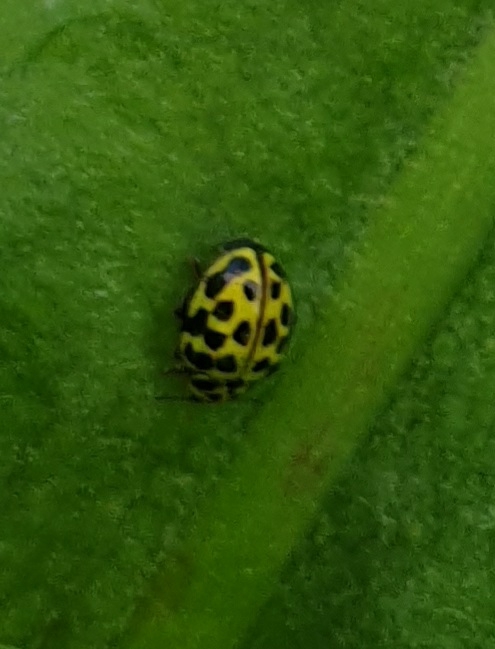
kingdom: Animalia
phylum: Arthropoda
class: Insecta
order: Coleoptera
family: Coccinellidae
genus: Psyllobora
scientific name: Psyllobora vigintiduopunctata
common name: Toogtyveplettet mariehøne
